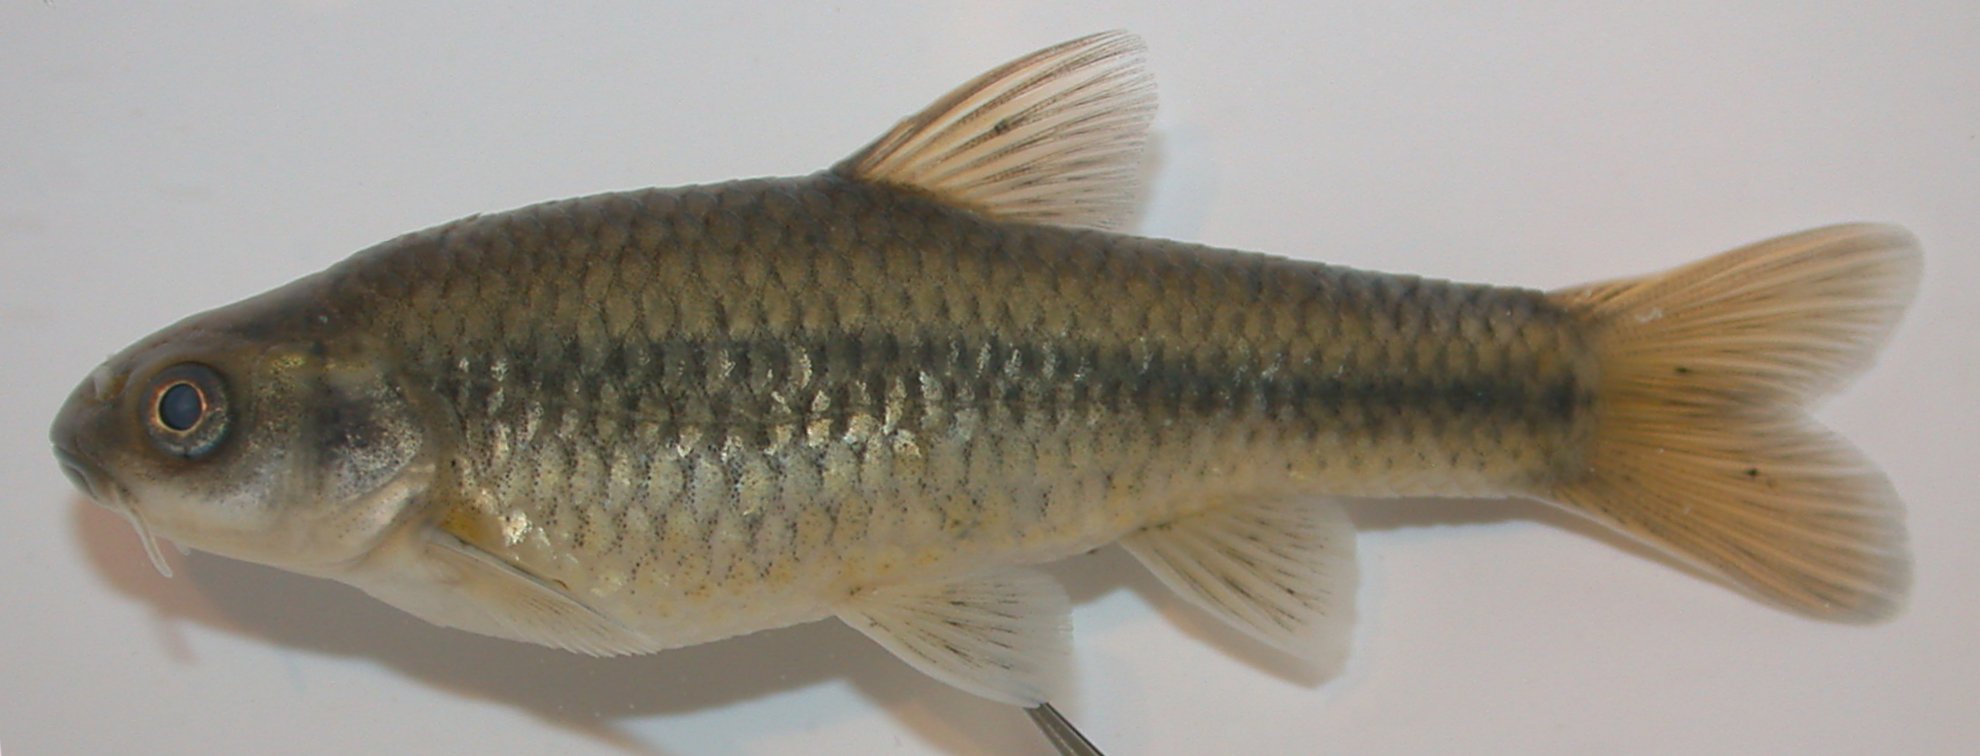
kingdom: Animalia
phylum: Chordata
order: Cypriniformes
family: Cyprinidae
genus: Enteromius
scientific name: Enteromius motebensis
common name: Marico barb
